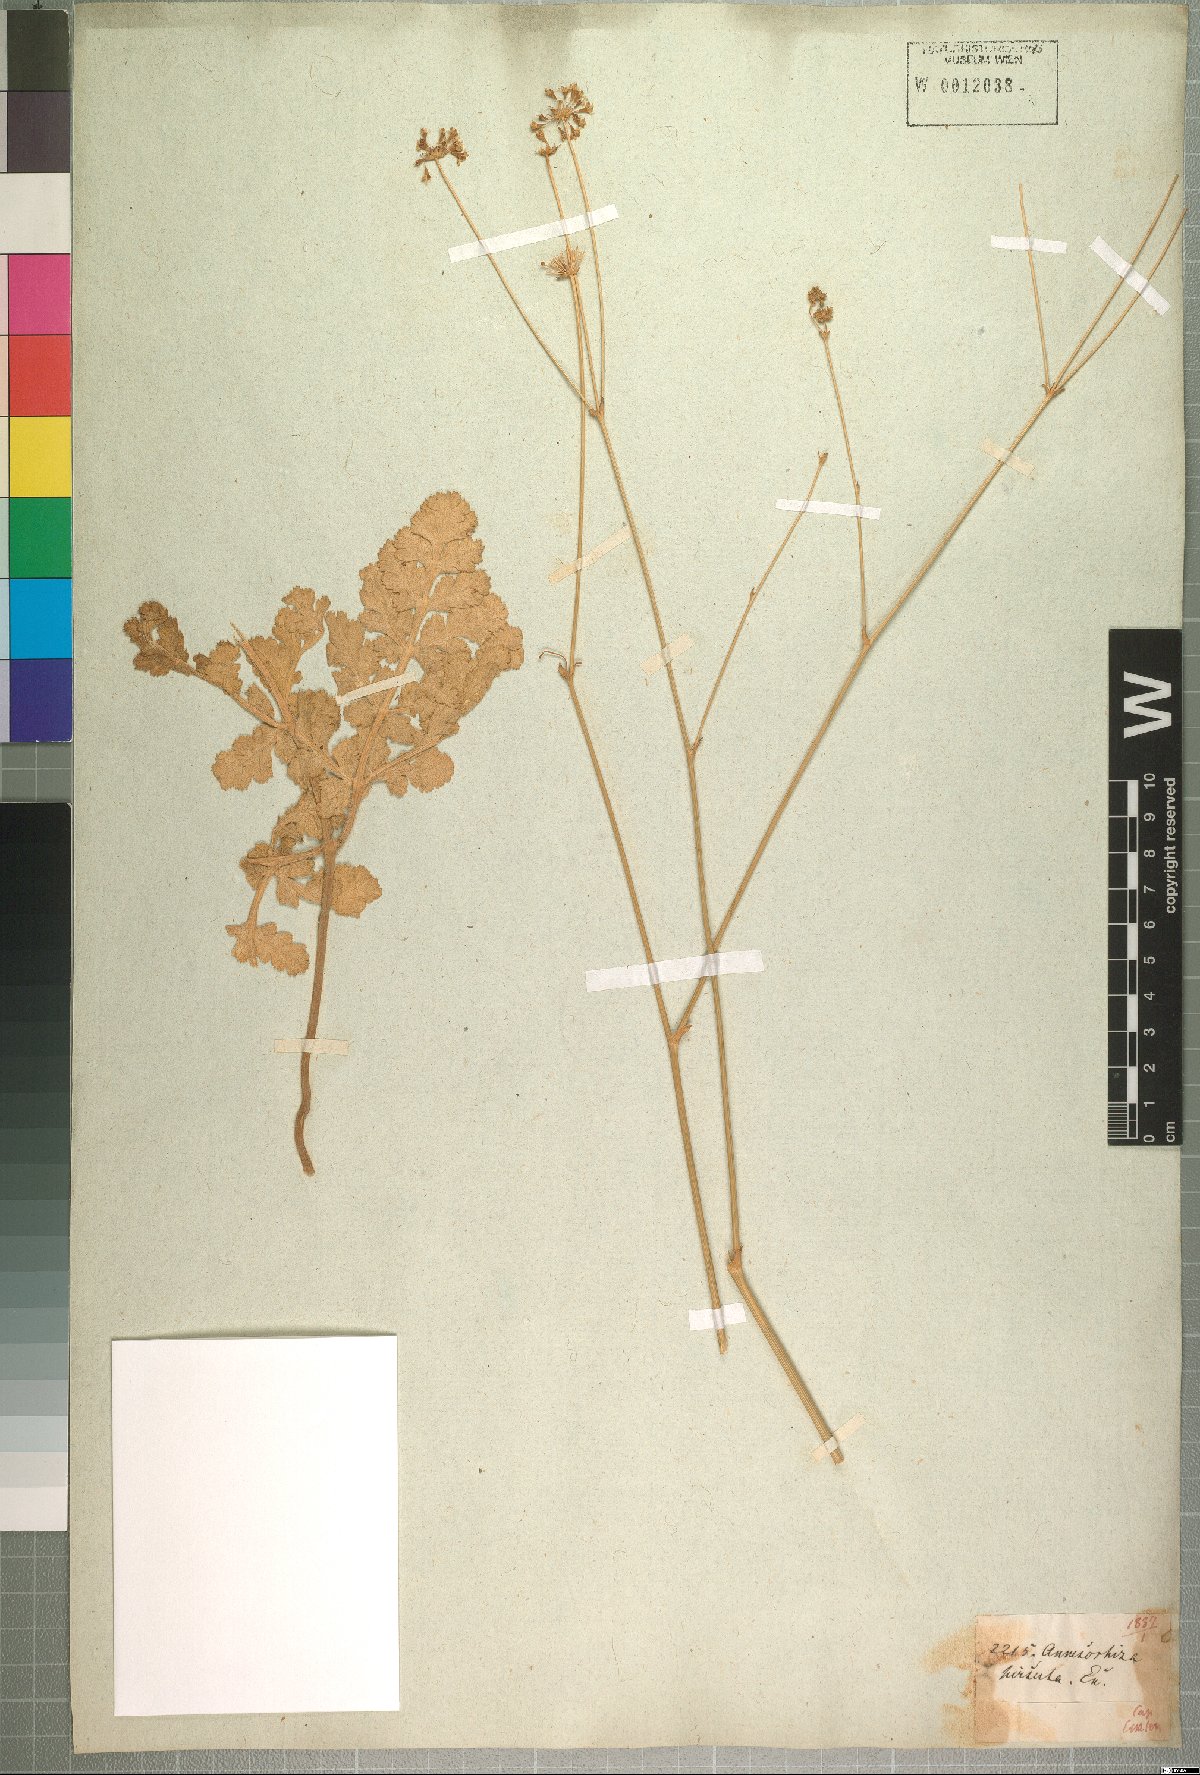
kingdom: Plantae
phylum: Tracheophyta
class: Magnoliopsida
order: Apiales
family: Apiaceae
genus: Annesorhiza
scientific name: Annesorhiza grandiflora
